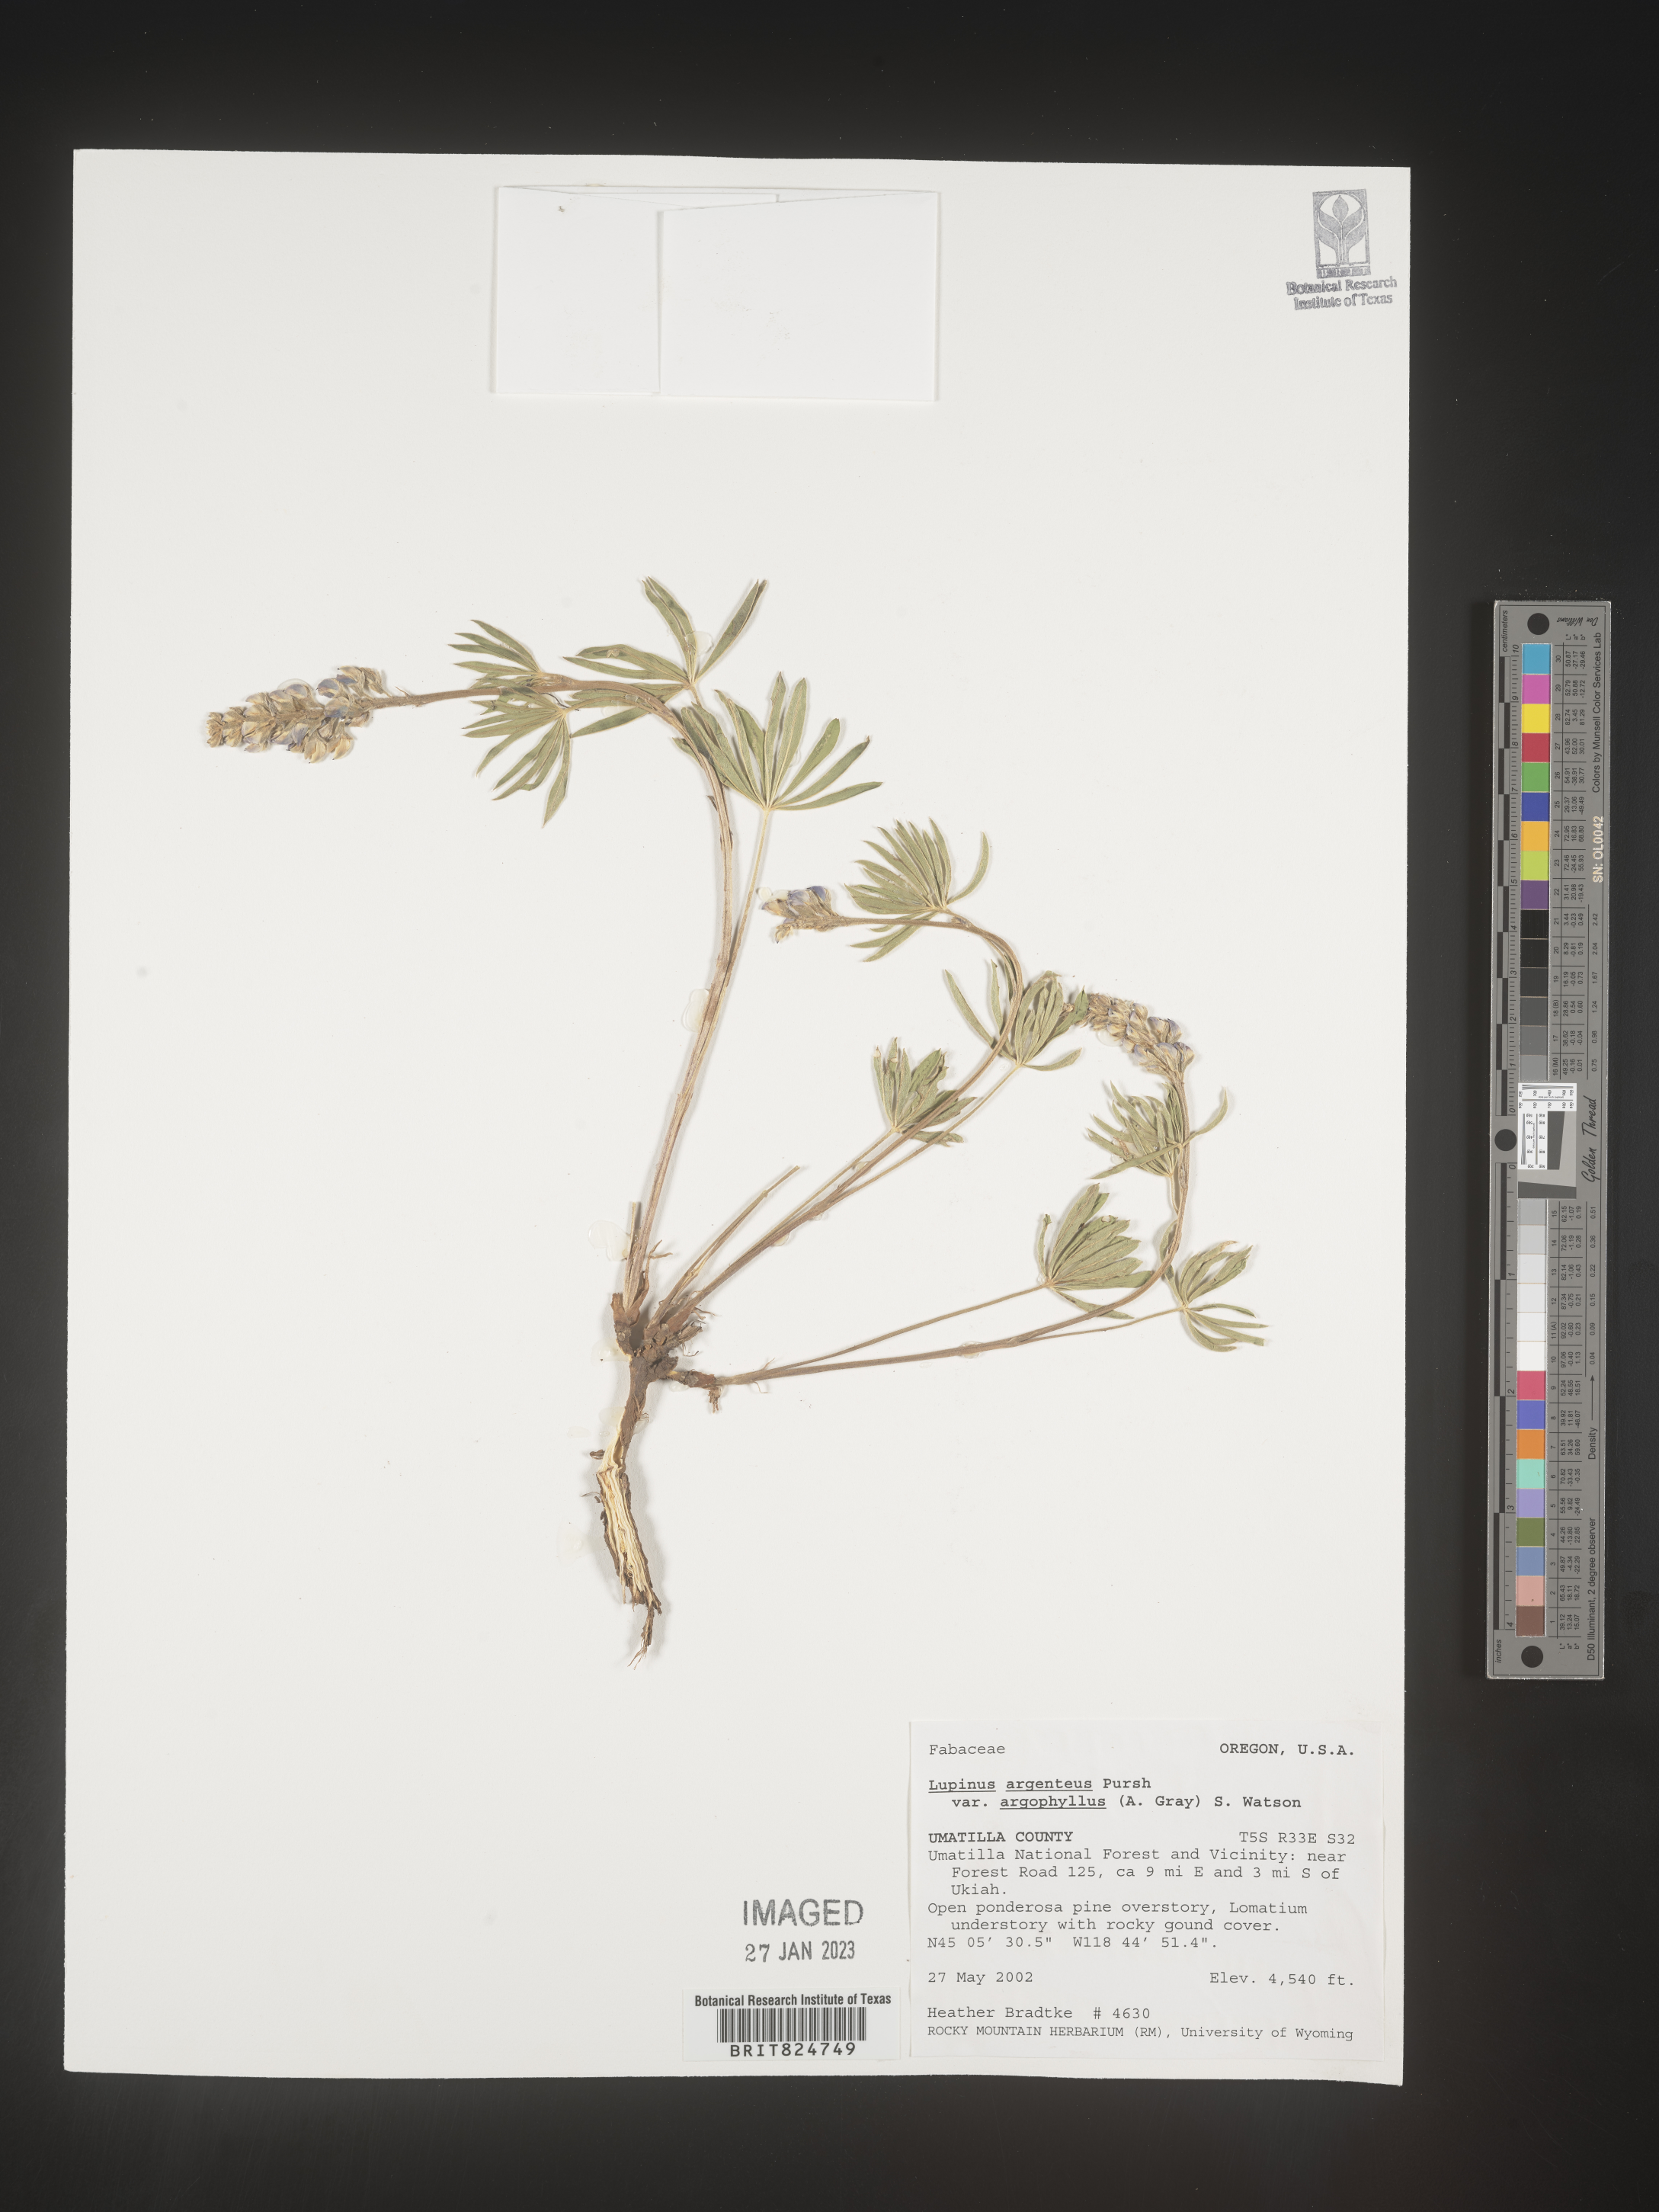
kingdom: Plantae
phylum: Tracheophyta
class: Magnoliopsida
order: Fabales
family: Fabaceae
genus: Lupinus
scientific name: Lupinus argenteus
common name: Silvery lupine
